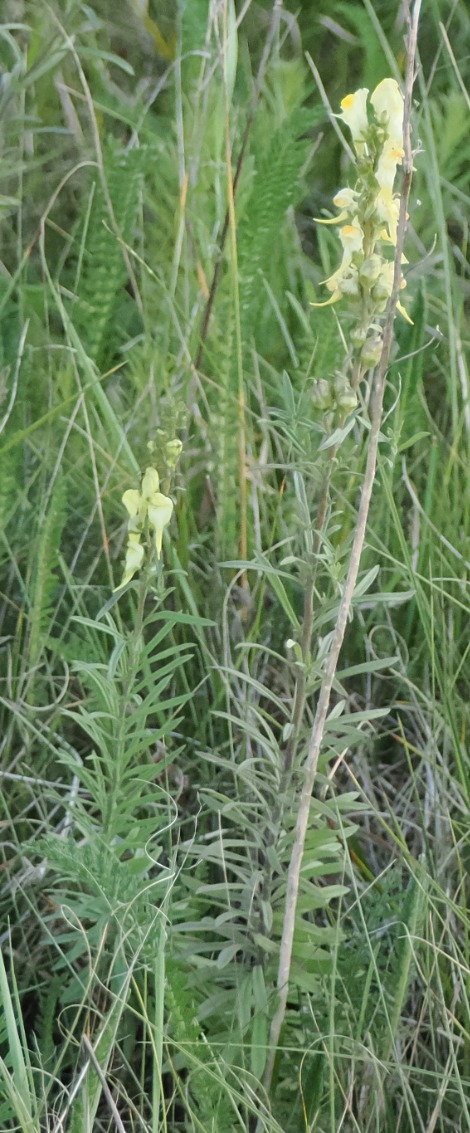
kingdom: Plantae
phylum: Tracheophyta
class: Magnoliopsida
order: Lamiales
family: Plantaginaceae
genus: Linaria
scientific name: Linaria vulgaris
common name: Almindelig torskemund
